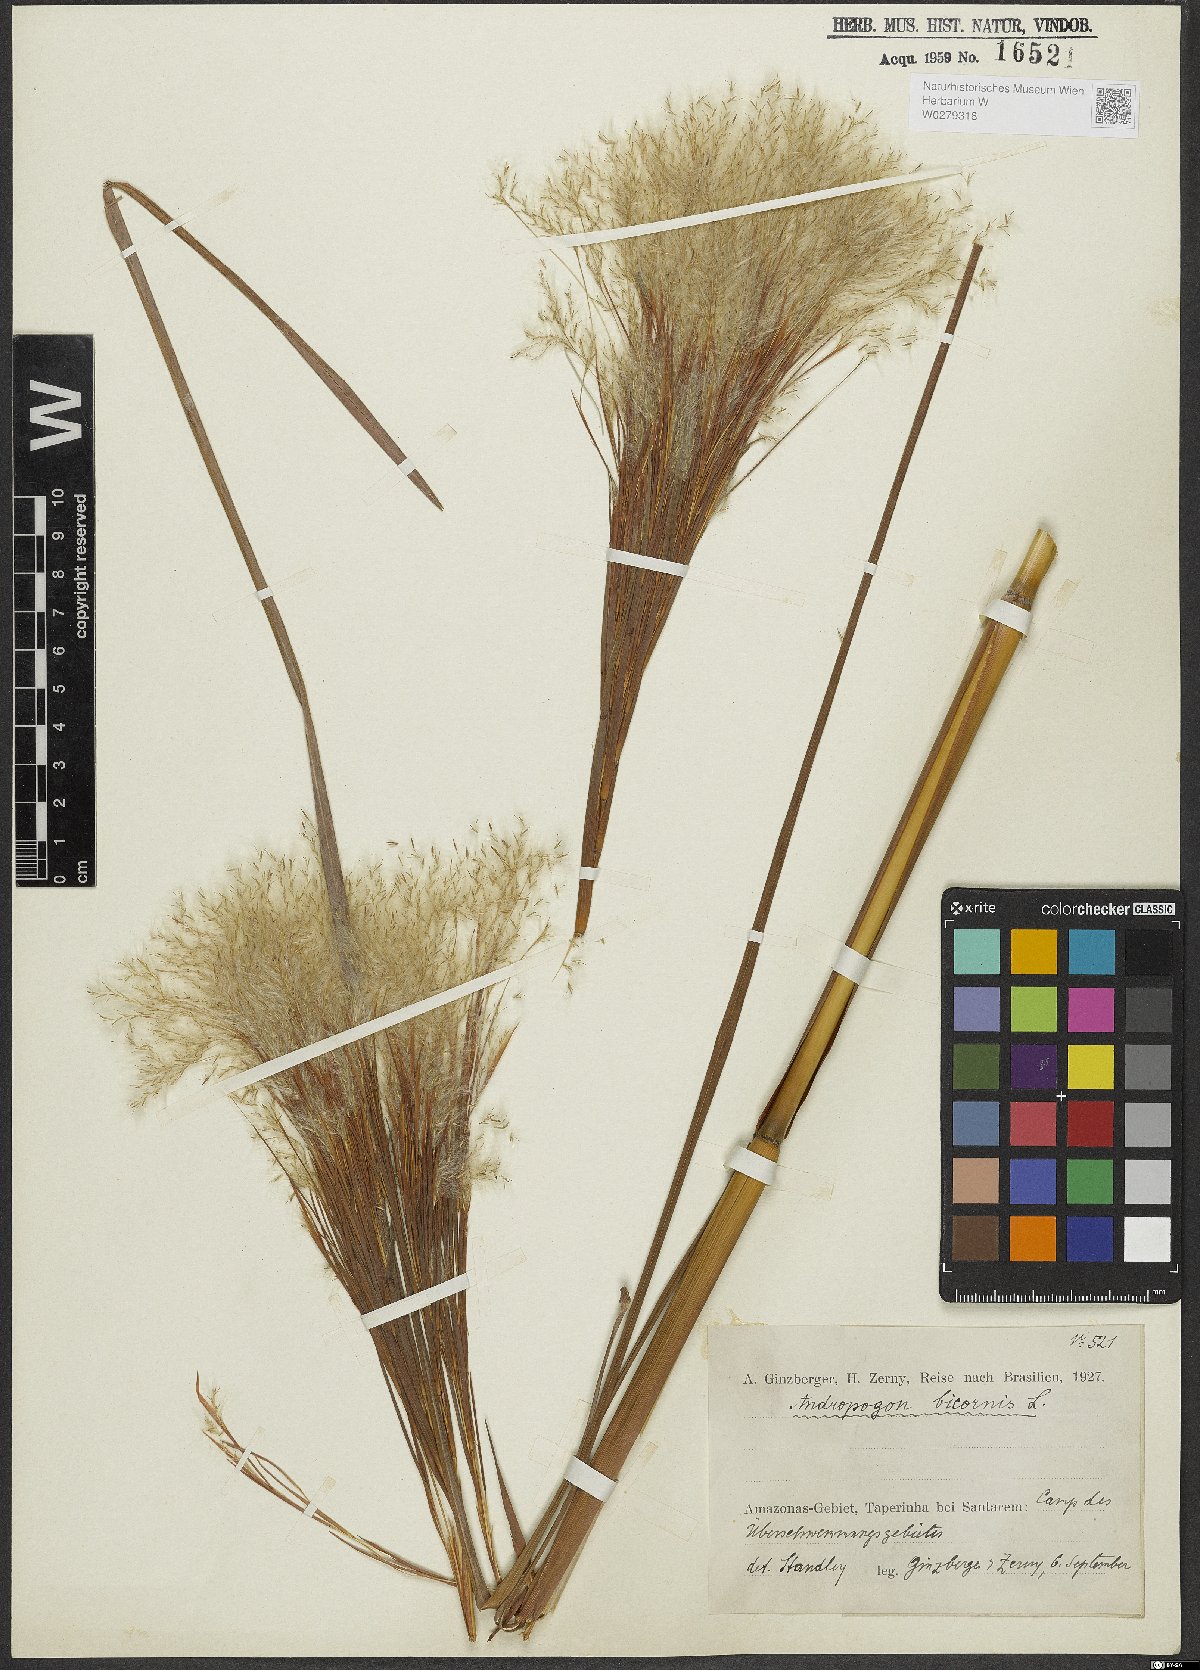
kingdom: Plantae
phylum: Tracheophyta
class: Liliopsida
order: Poales
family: Poaceae
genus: Andropogon
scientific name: Andropogon bicornis
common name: West indian foxtail grass
